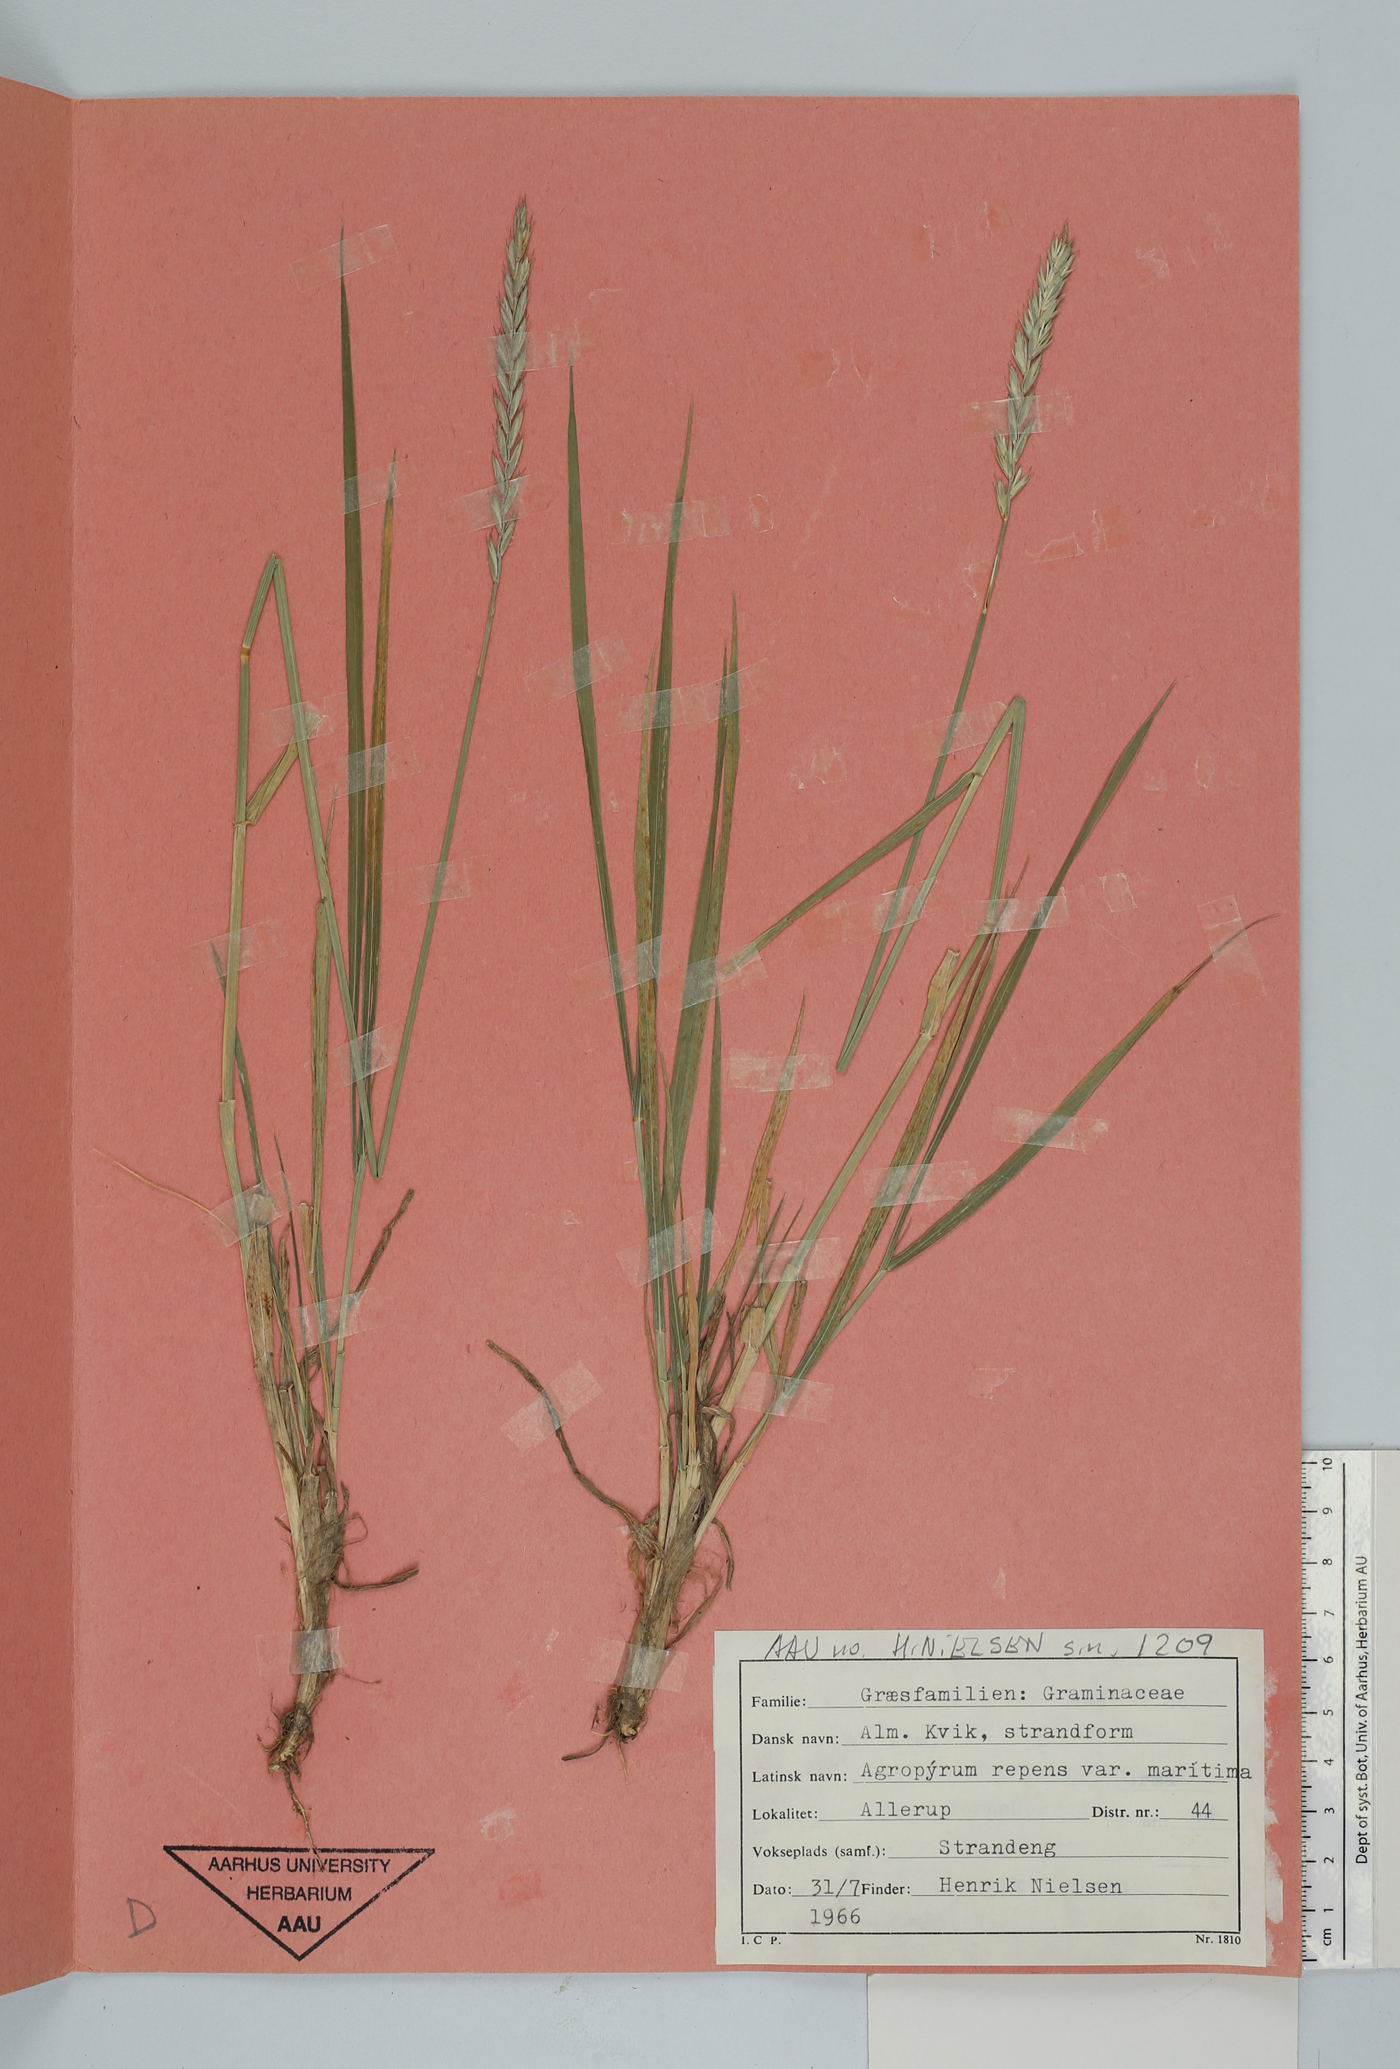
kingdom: Plantae
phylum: Tracheophyta
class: Liliopsida
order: Poales
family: Poaceae
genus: Elymus
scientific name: Elymus repens
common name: Quackgrass
